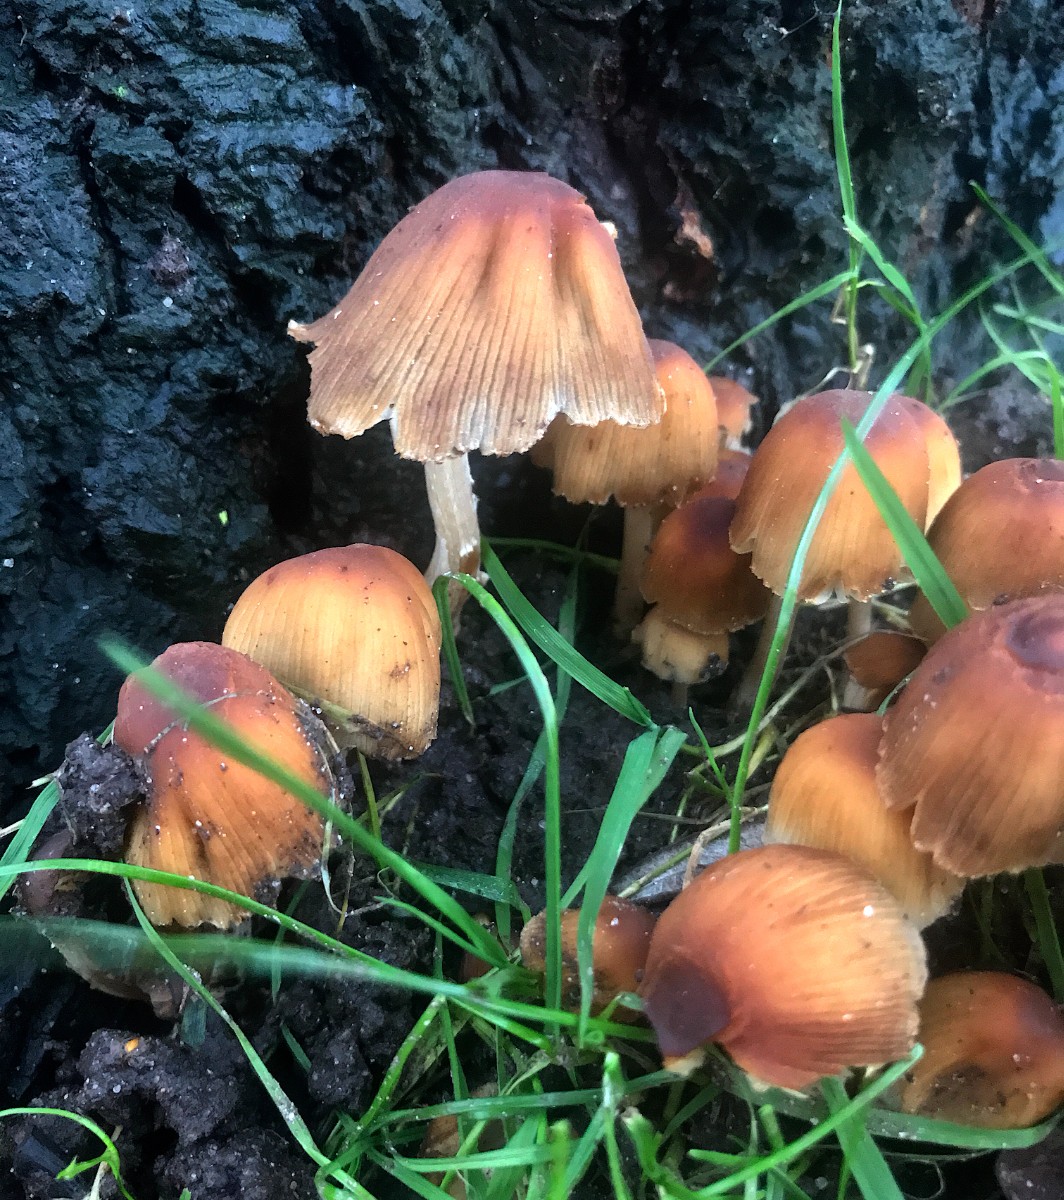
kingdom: Fungi
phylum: Basidiomycota
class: Agaricomycetes
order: Agaricales
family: Psathyrellaceae
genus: Coprinellus
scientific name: Coprinellus micaceus
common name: glimmer-blækhat
